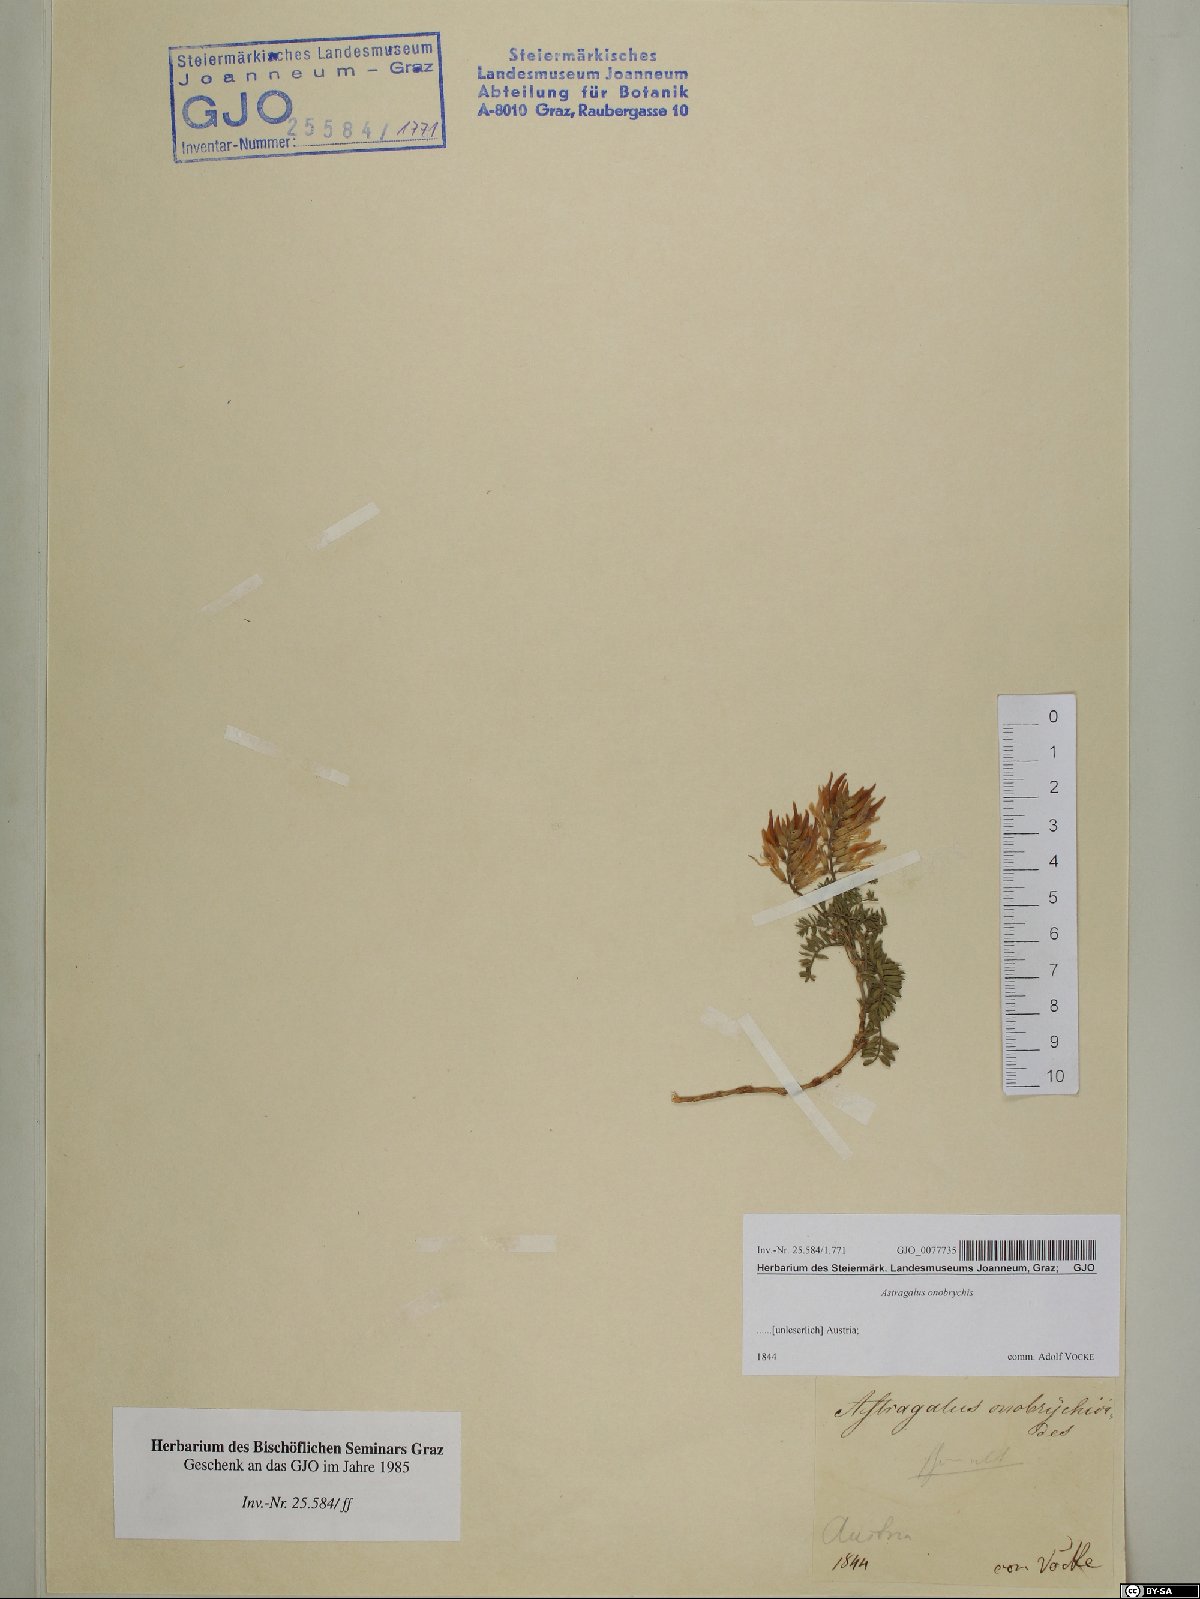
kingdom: Plantae
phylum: Tracheophyta
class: Magnoliopsida
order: Fabales
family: Fabaceae
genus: Astragalus
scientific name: Astragalus onobrychis
